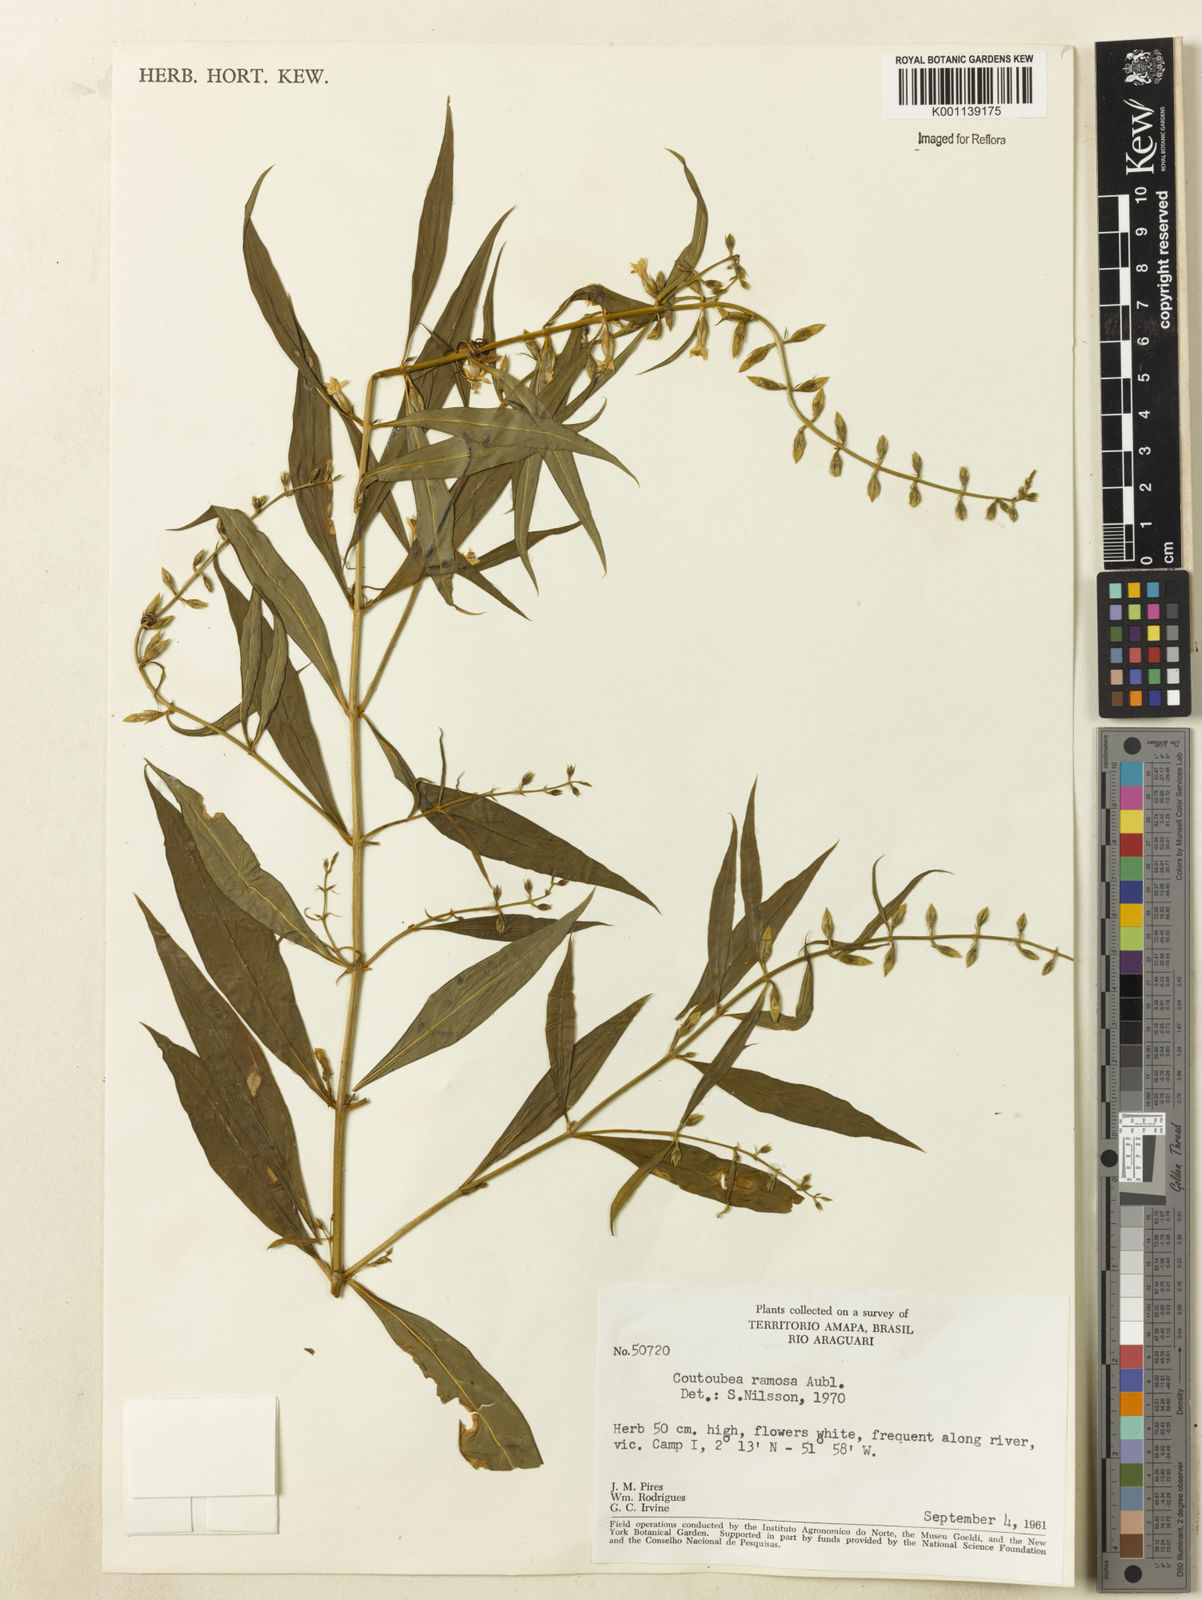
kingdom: Plantae
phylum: Tracheophyta
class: Magnoliopsida
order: Gentianales
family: Gentianaceae
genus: Coutoubea
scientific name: Coutoubea ramosa
